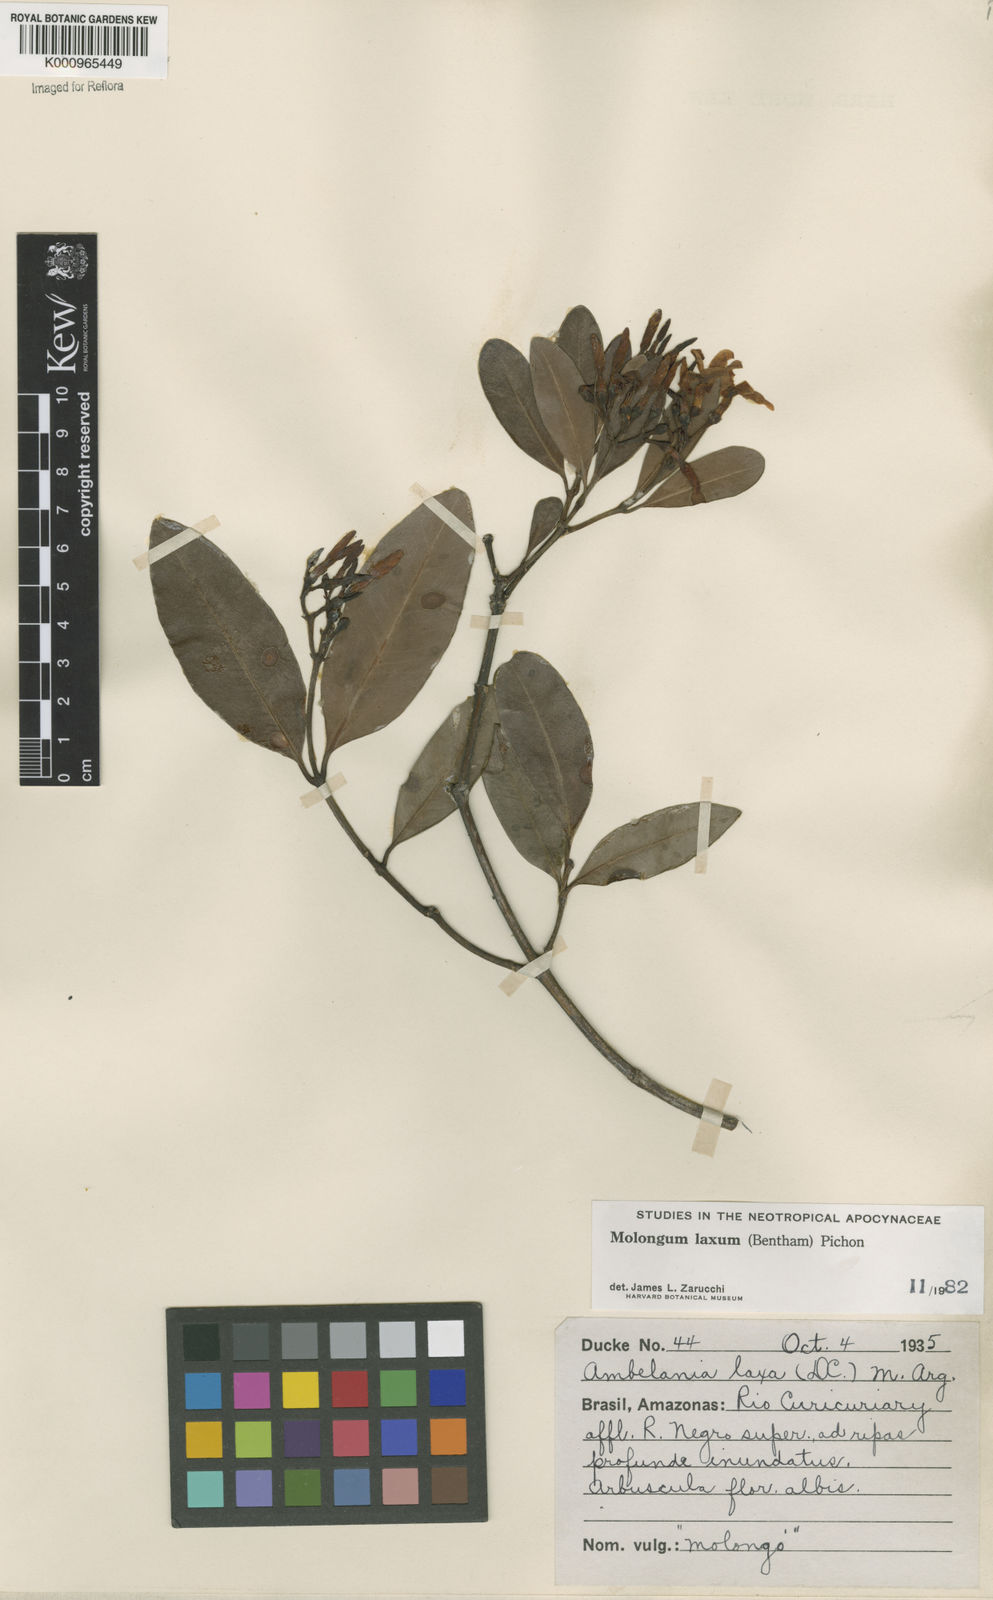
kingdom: Plantae
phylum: Tracheophyta
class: Magnoliopsida
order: Gentianales
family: Apocynaceae
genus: Molongum
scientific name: Molongum laxum
